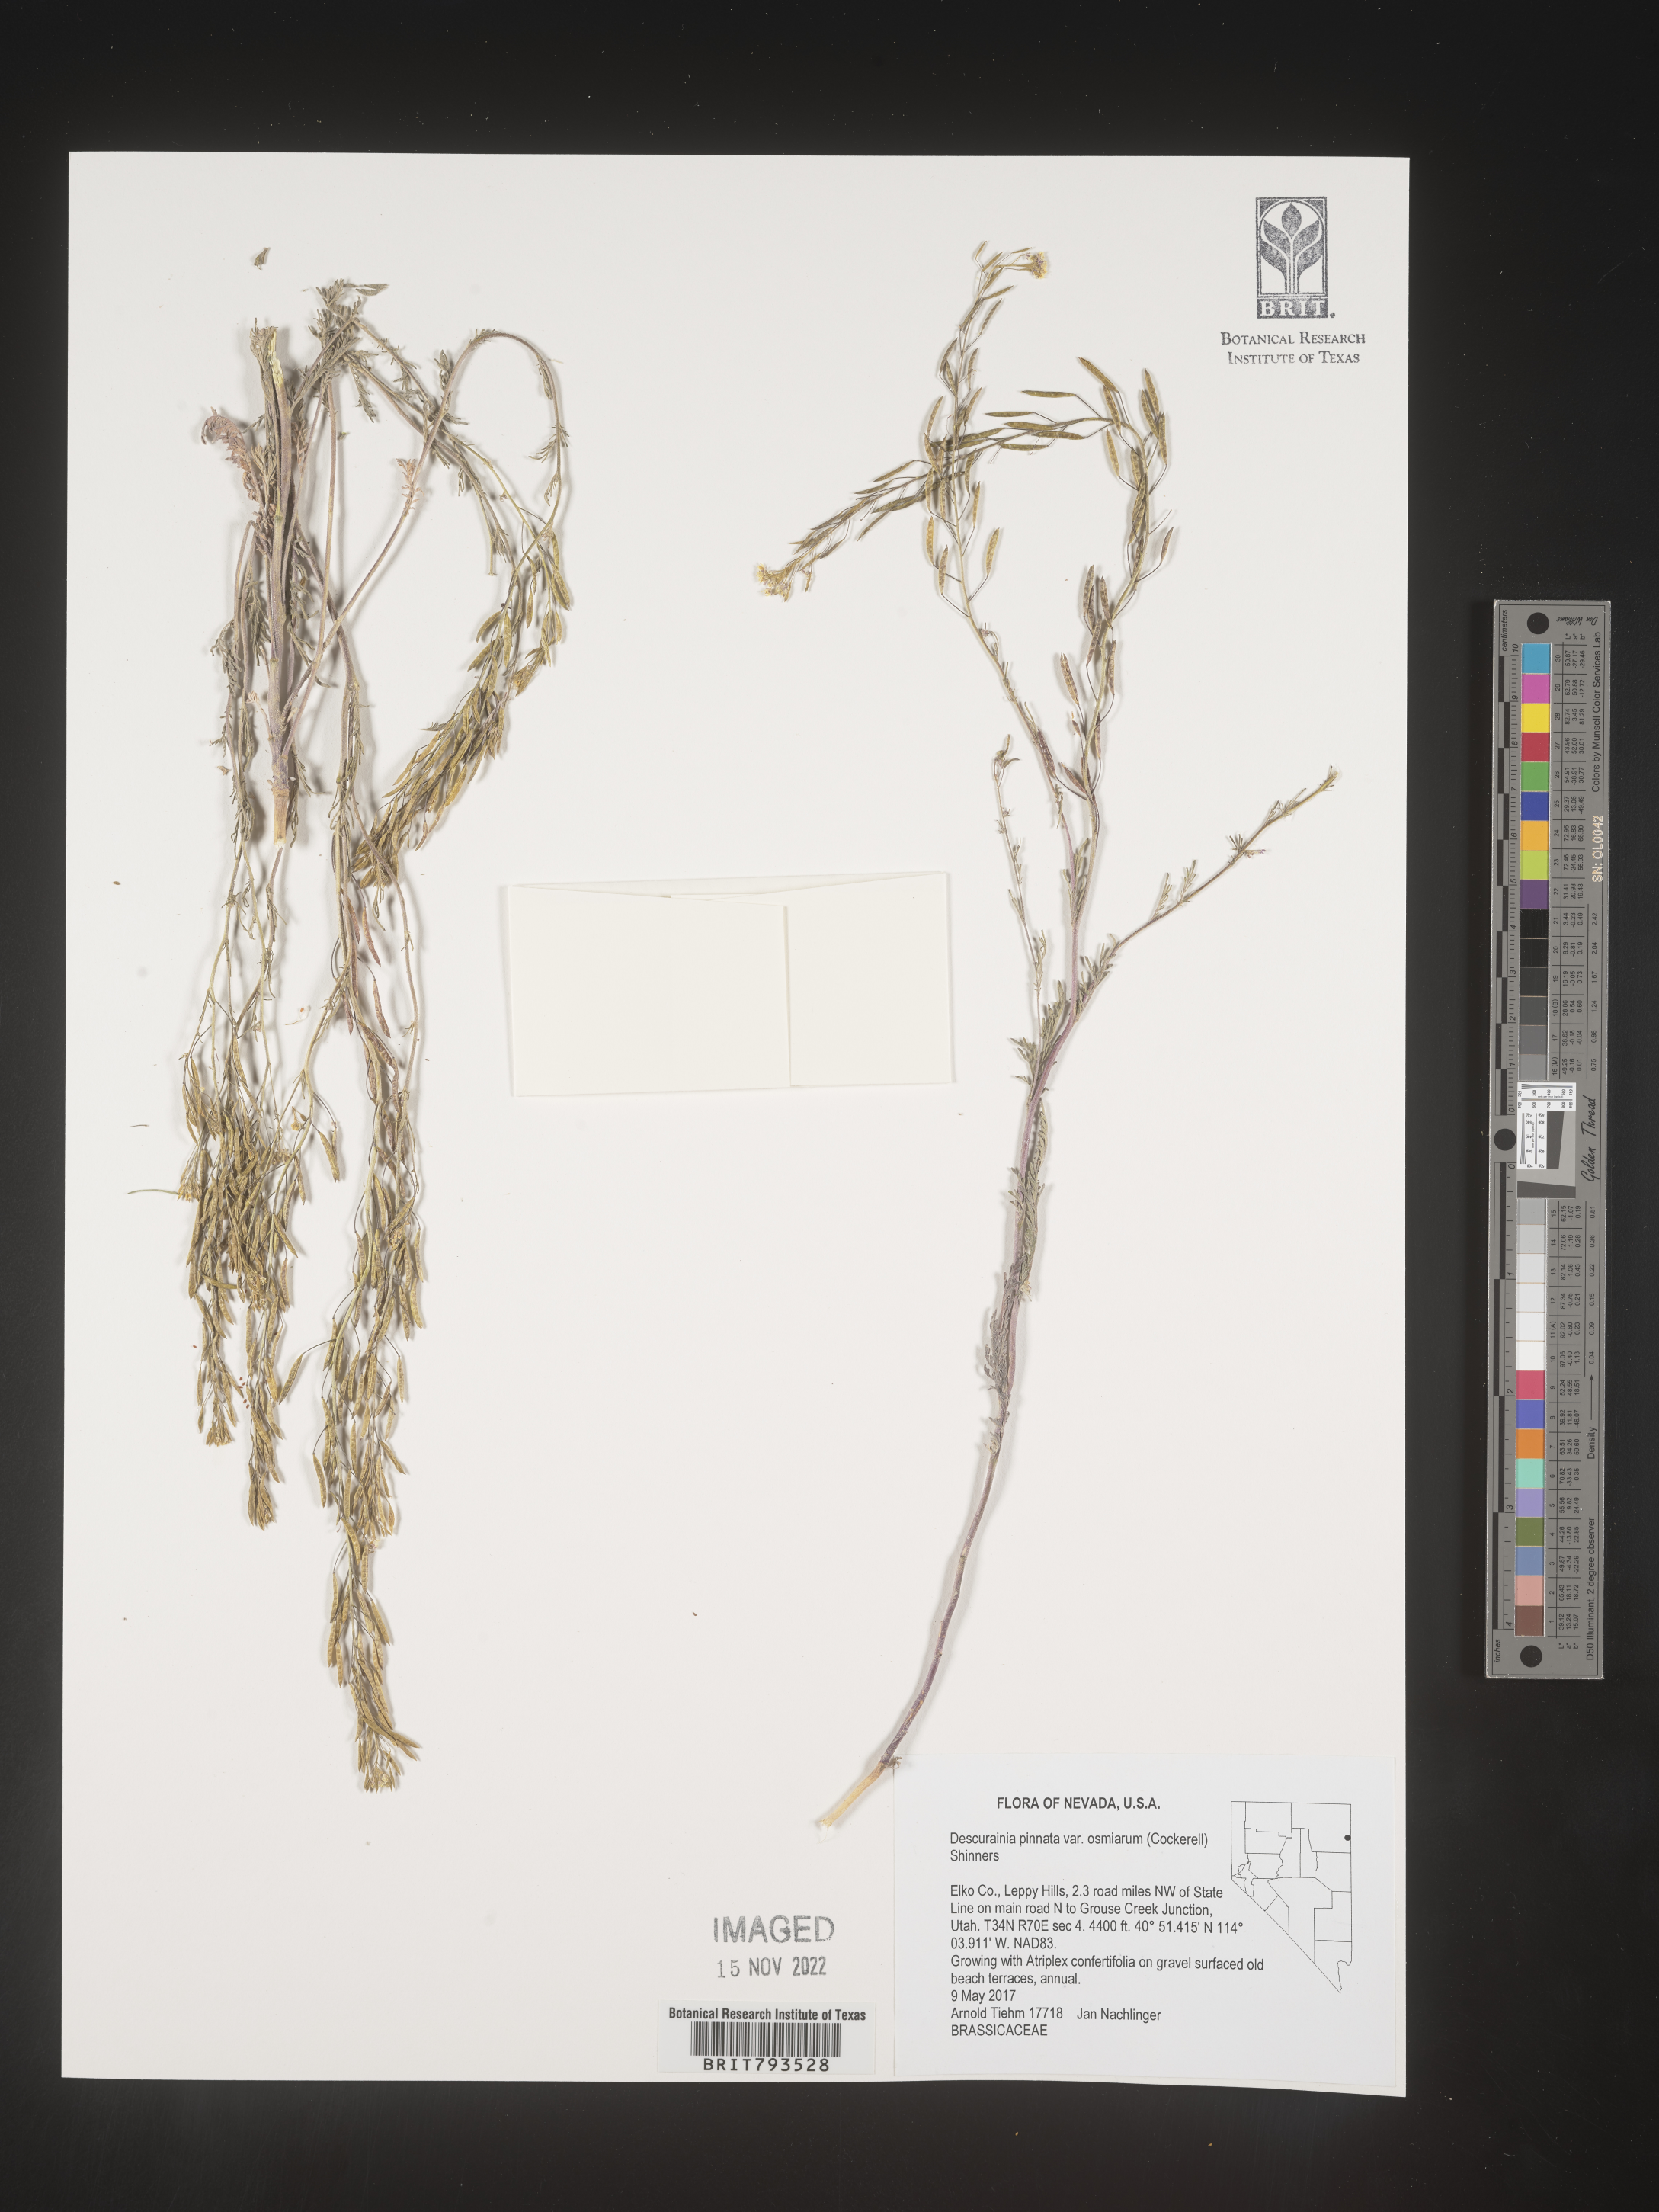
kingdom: Plantae
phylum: Tracheophyta
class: Magnoliopsida
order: Brassicales
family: Brassicaceae
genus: Descurainia
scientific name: Descurainia pinnata
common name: Western tansy mustard
